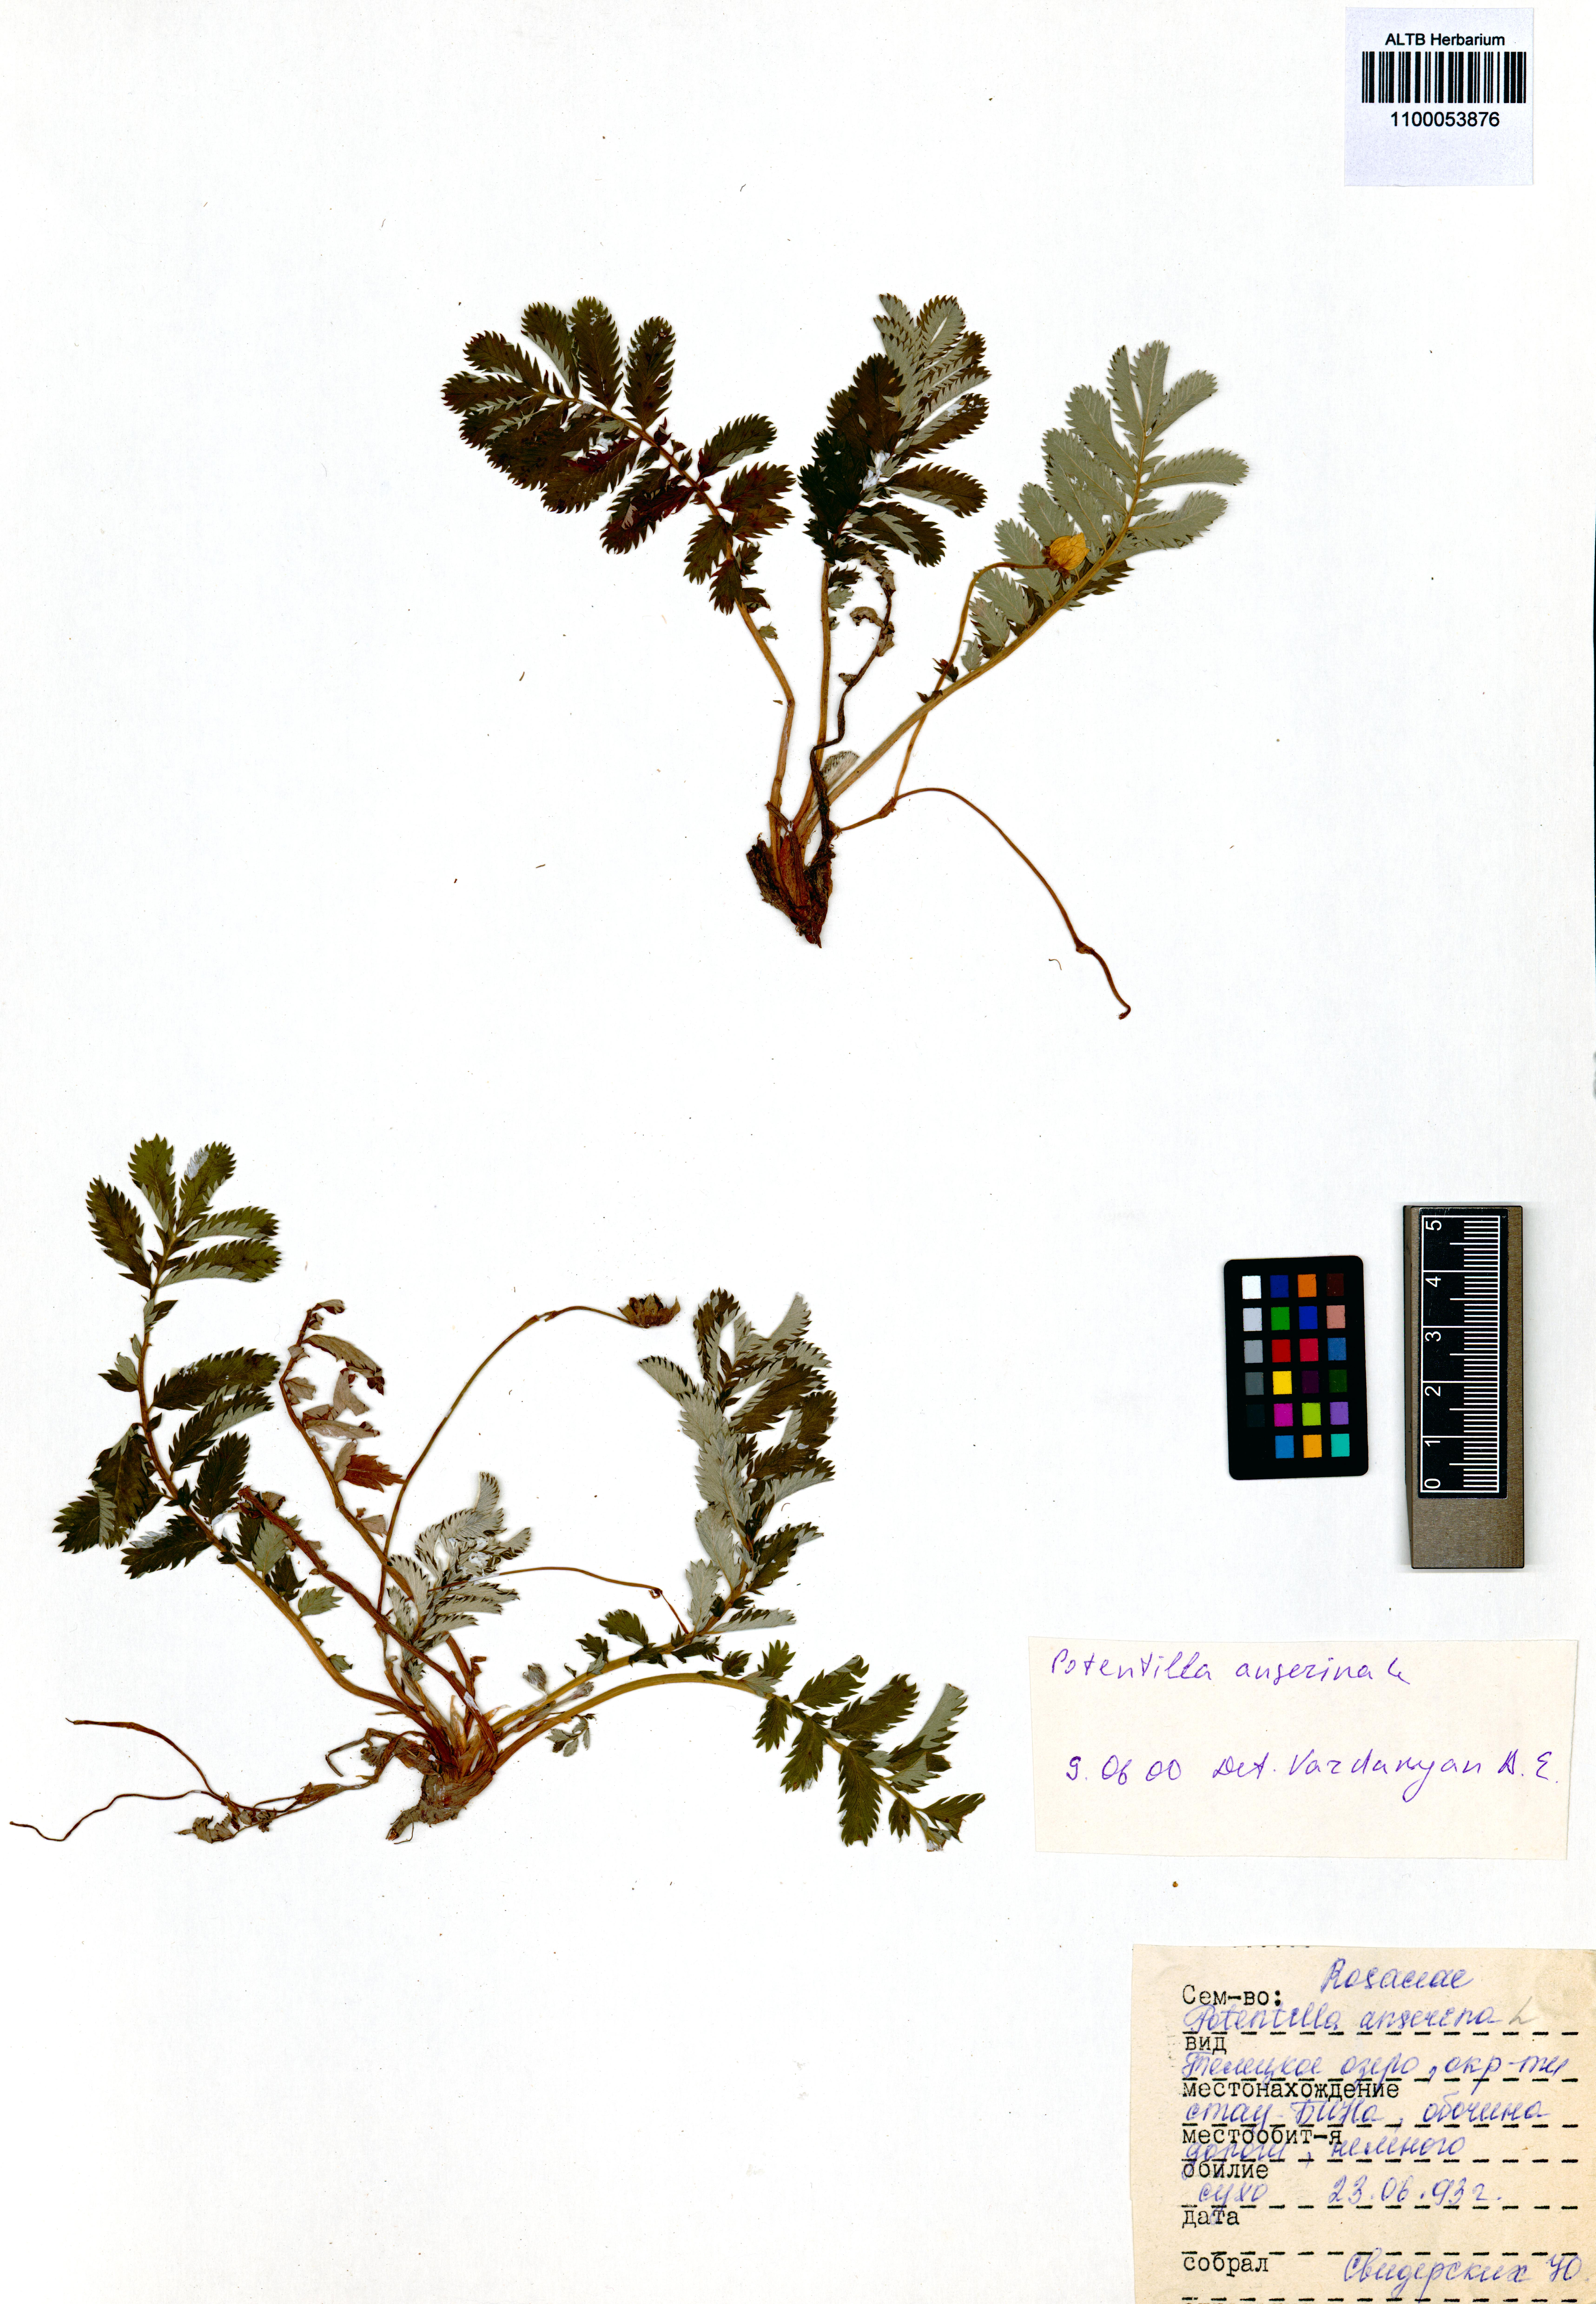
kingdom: Plantae
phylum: Tracheophyta
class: Magnoliopsida
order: Rosales
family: Rosaceae
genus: Argentina
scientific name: Argentina anserina
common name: Common silverweed
